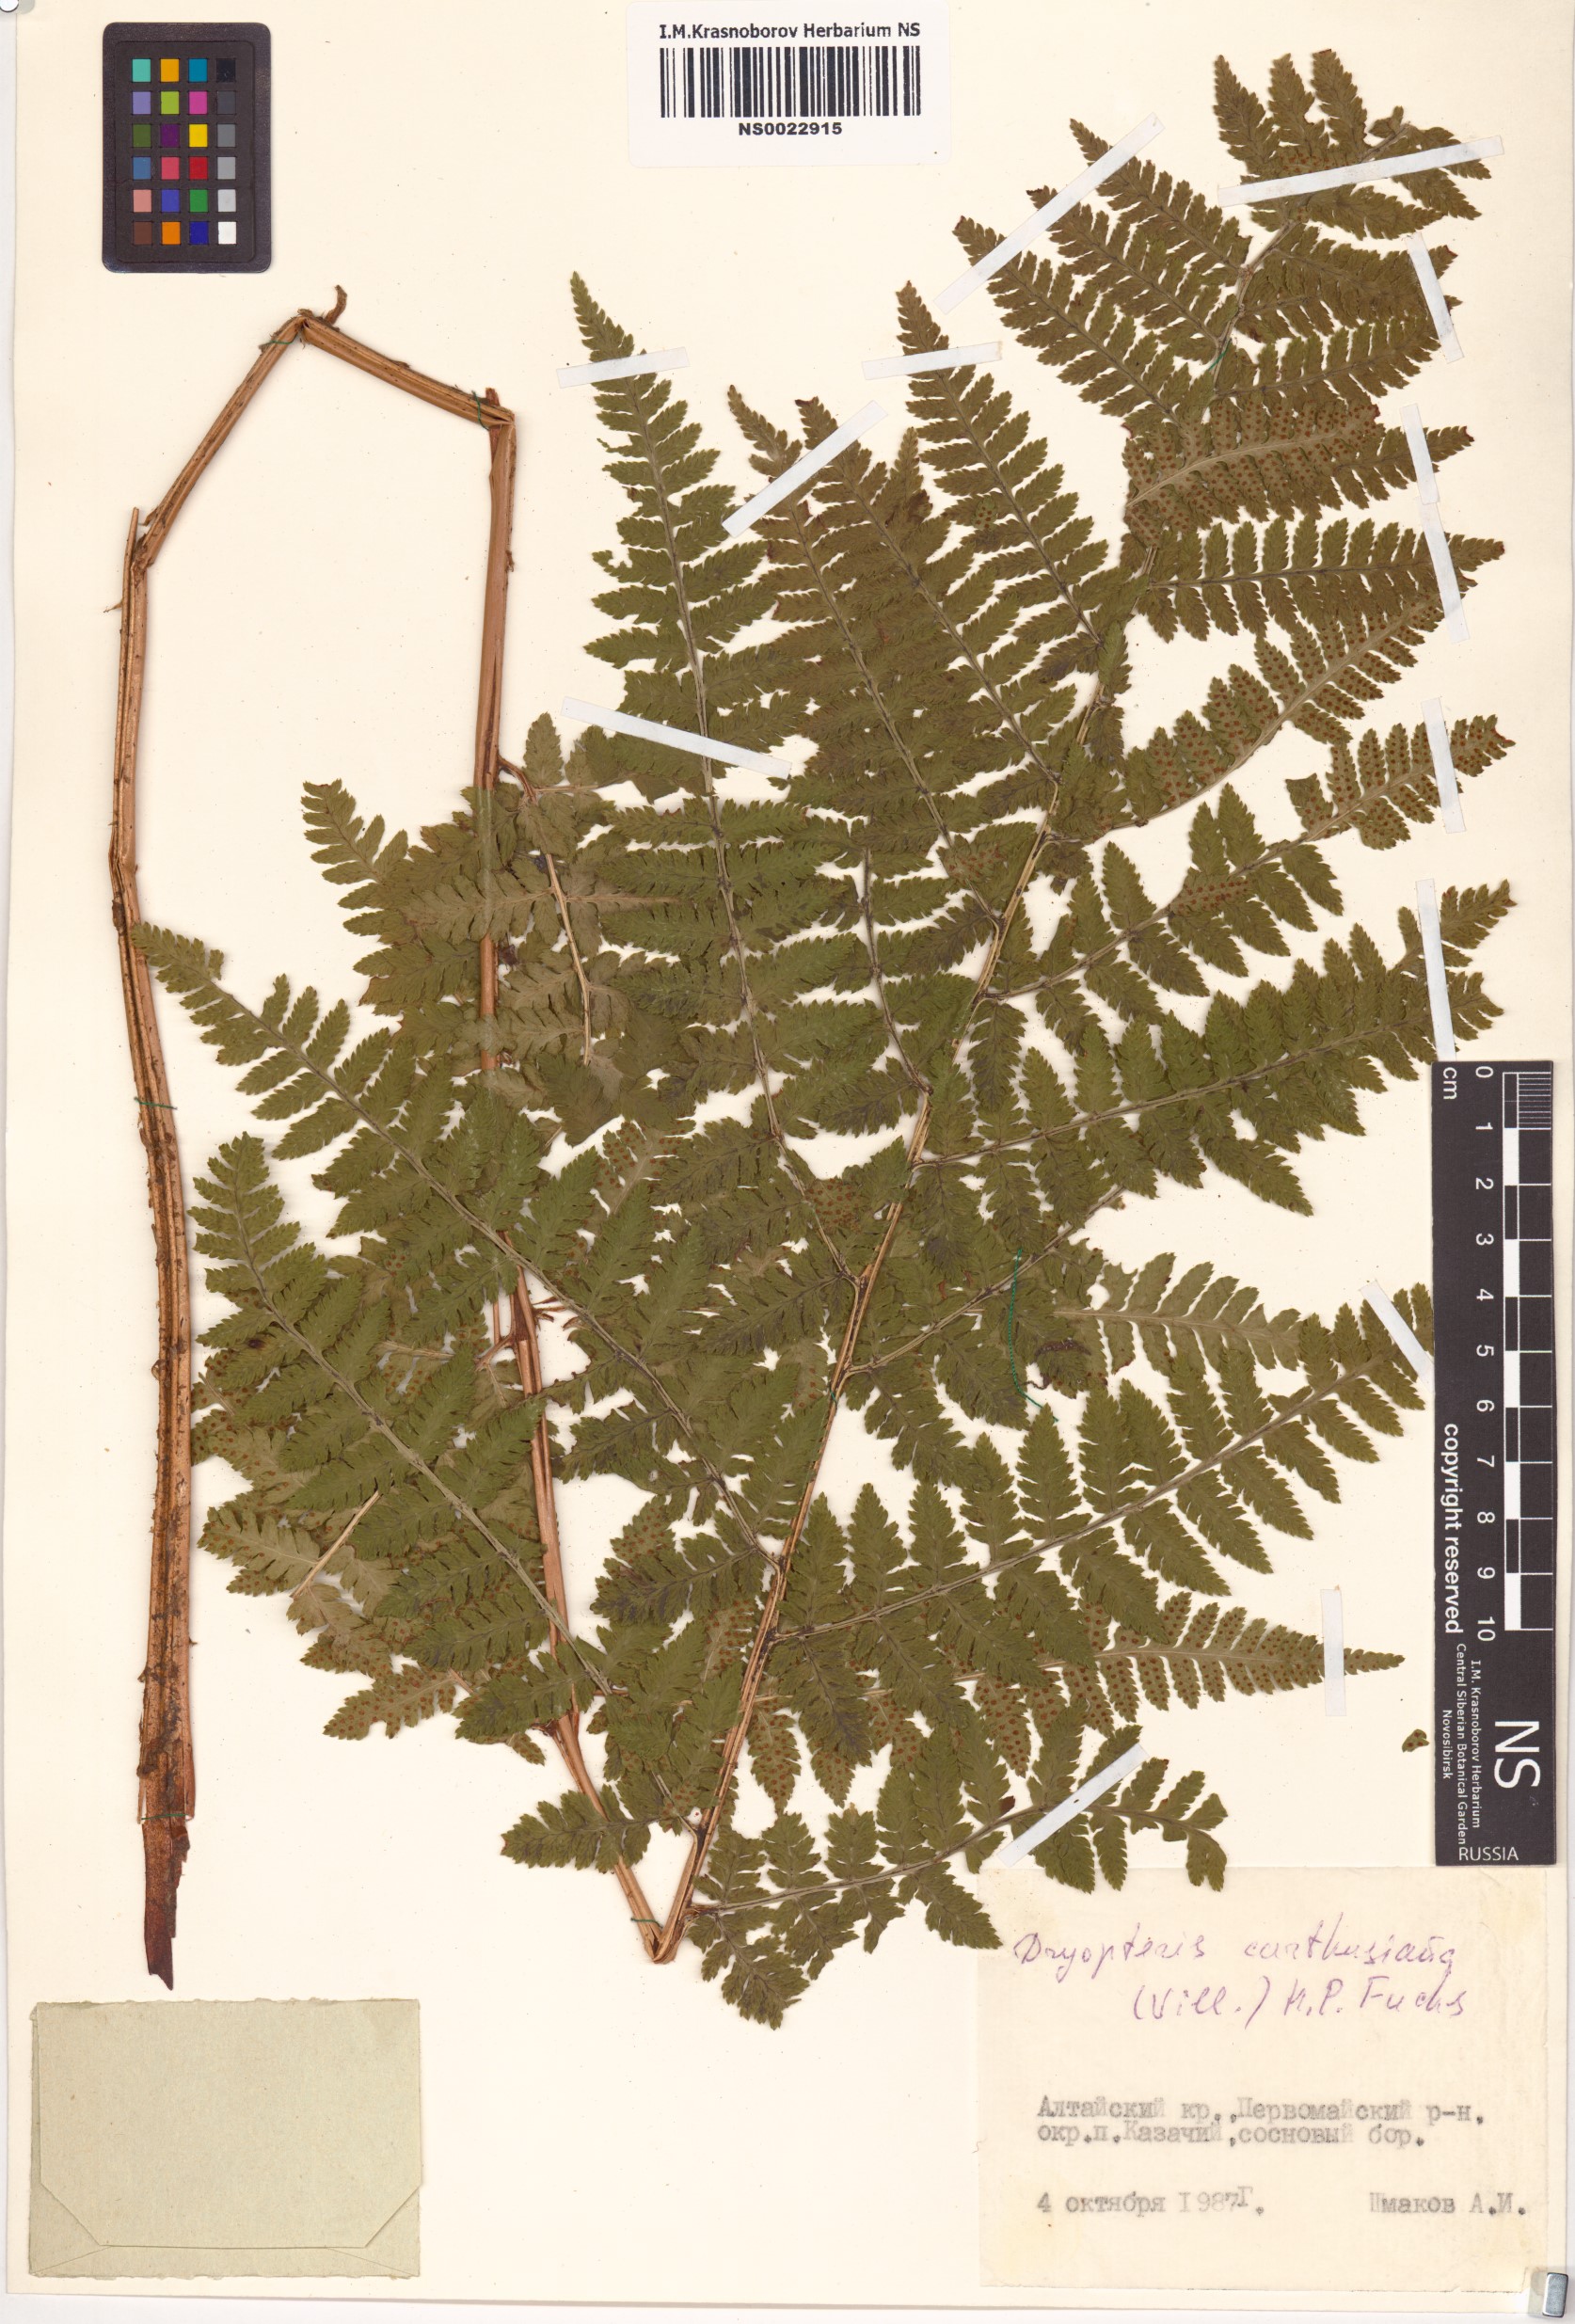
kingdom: Plantae
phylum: Tracheophyta
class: Polypodiopsida
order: Polypodiales
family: Dryopteridaceae
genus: Dryopteris
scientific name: Dryopteris carthusiana
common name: Narrow buckler-fern
